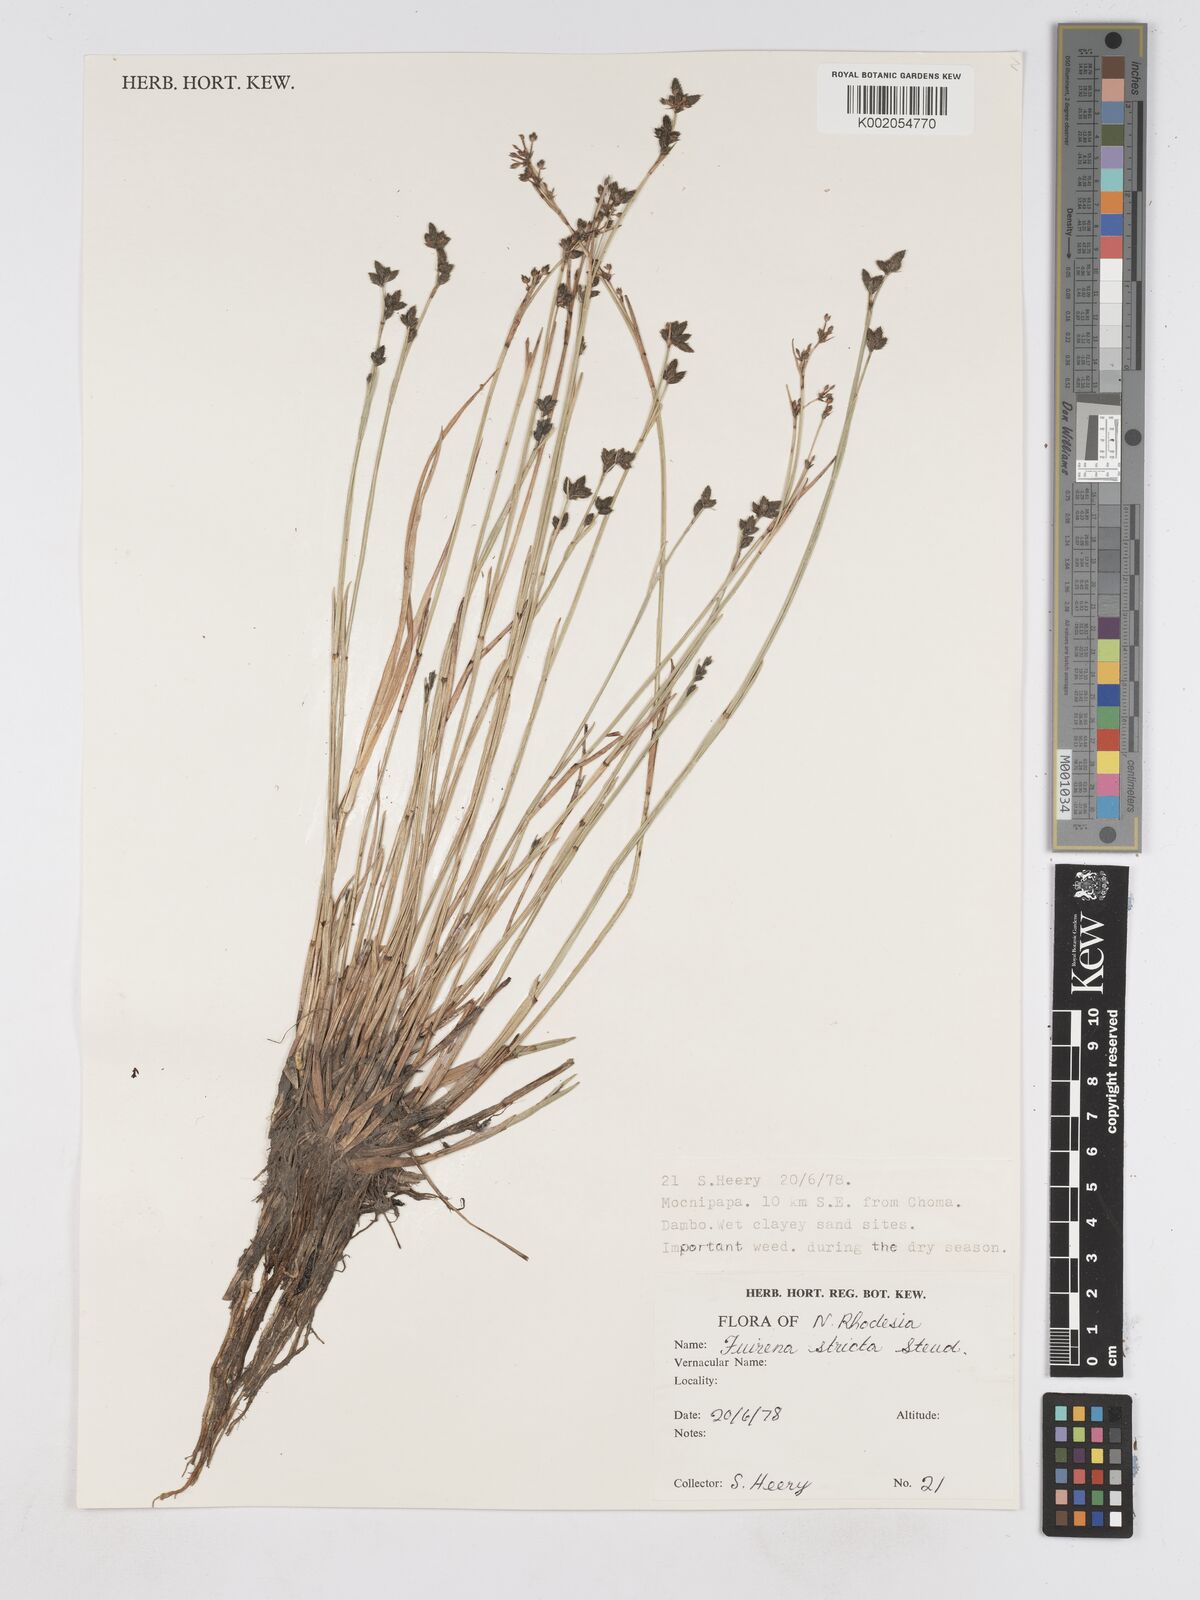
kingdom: Plantae
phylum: Tracheophyta
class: Liliopsida
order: Poales
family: Cyperaceae
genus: Fuirena
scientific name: Fuirena stricta
